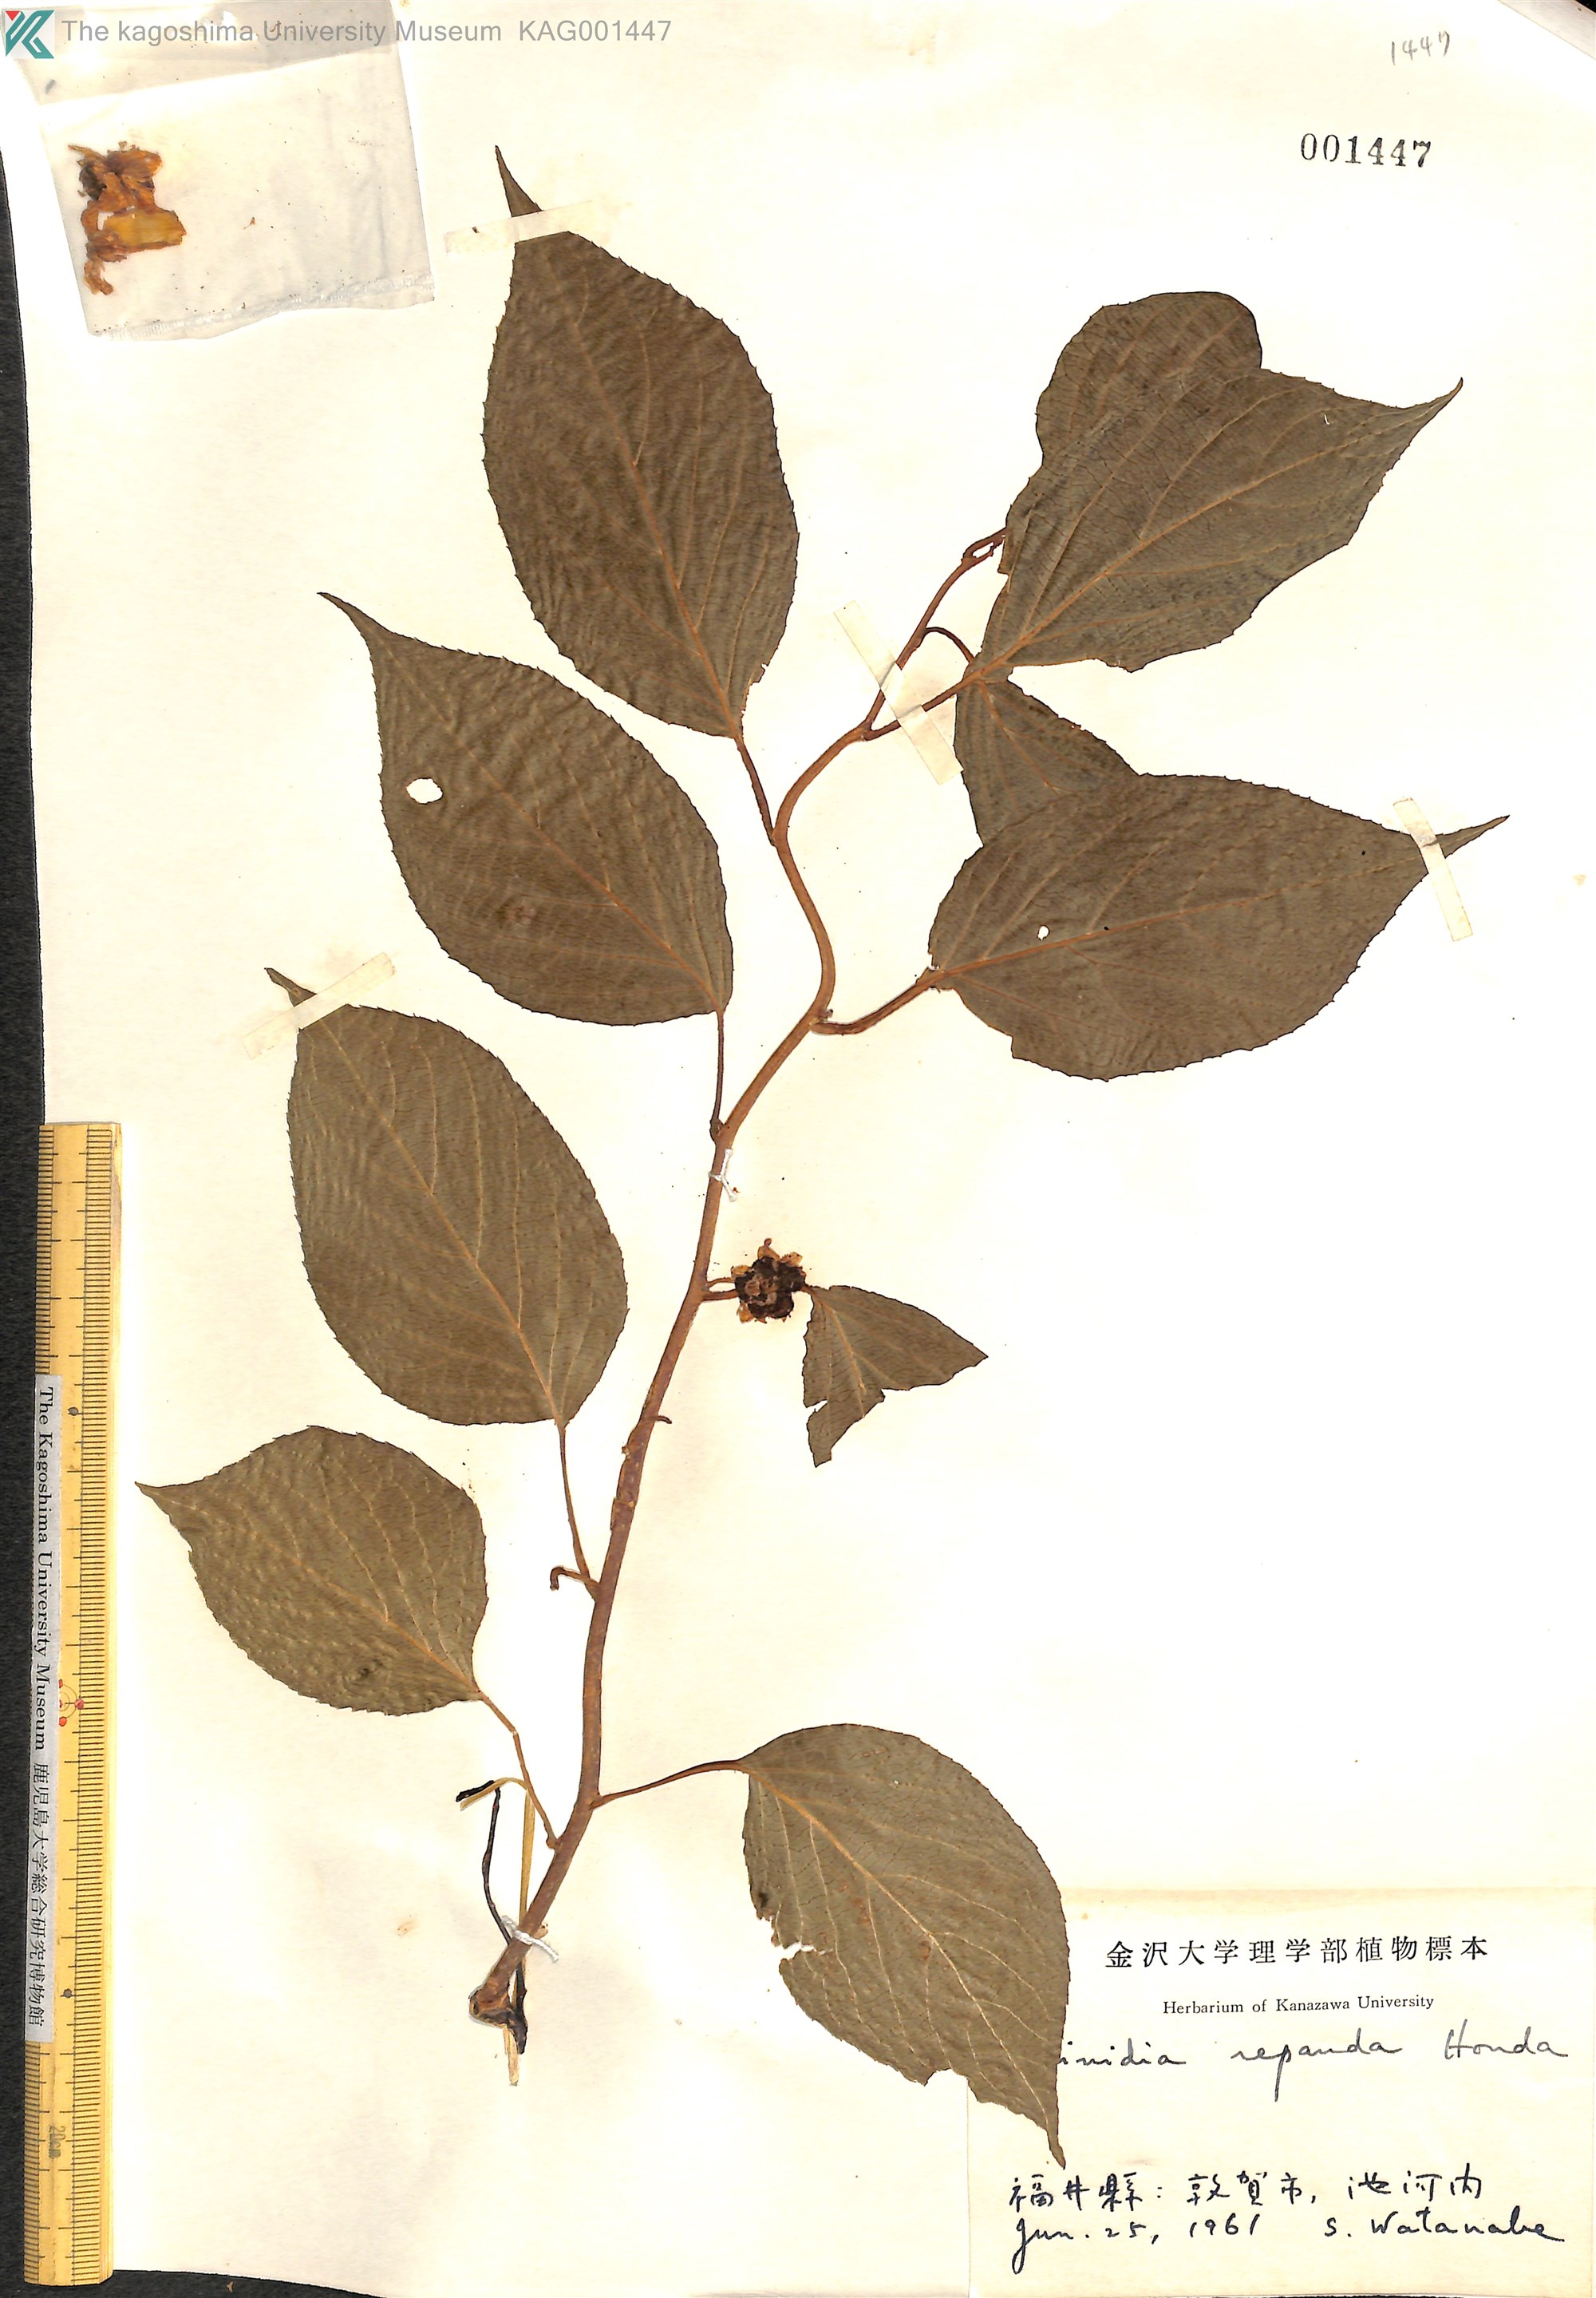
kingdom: Plantae
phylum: Tracheophyta
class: Magnoliopsida
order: Ericales
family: Actinidiaceae
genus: Actinidia
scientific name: Actinidia polygama
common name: Silver vine
